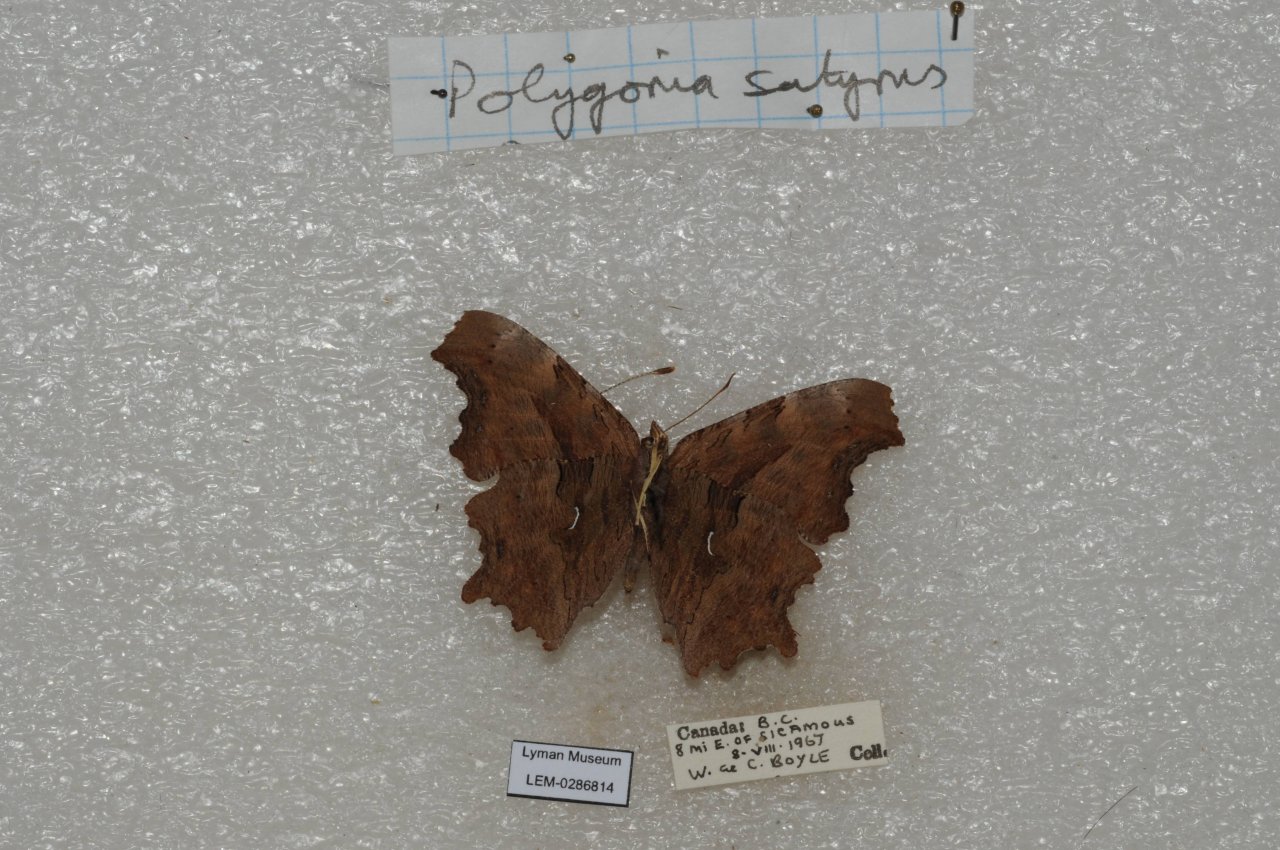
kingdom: Animalia
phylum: Arthropoda
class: Insecta
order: Lepidoptera
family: Nymphalidae
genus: Polygonia
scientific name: Polygonia satyrus
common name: Satyr Comma
